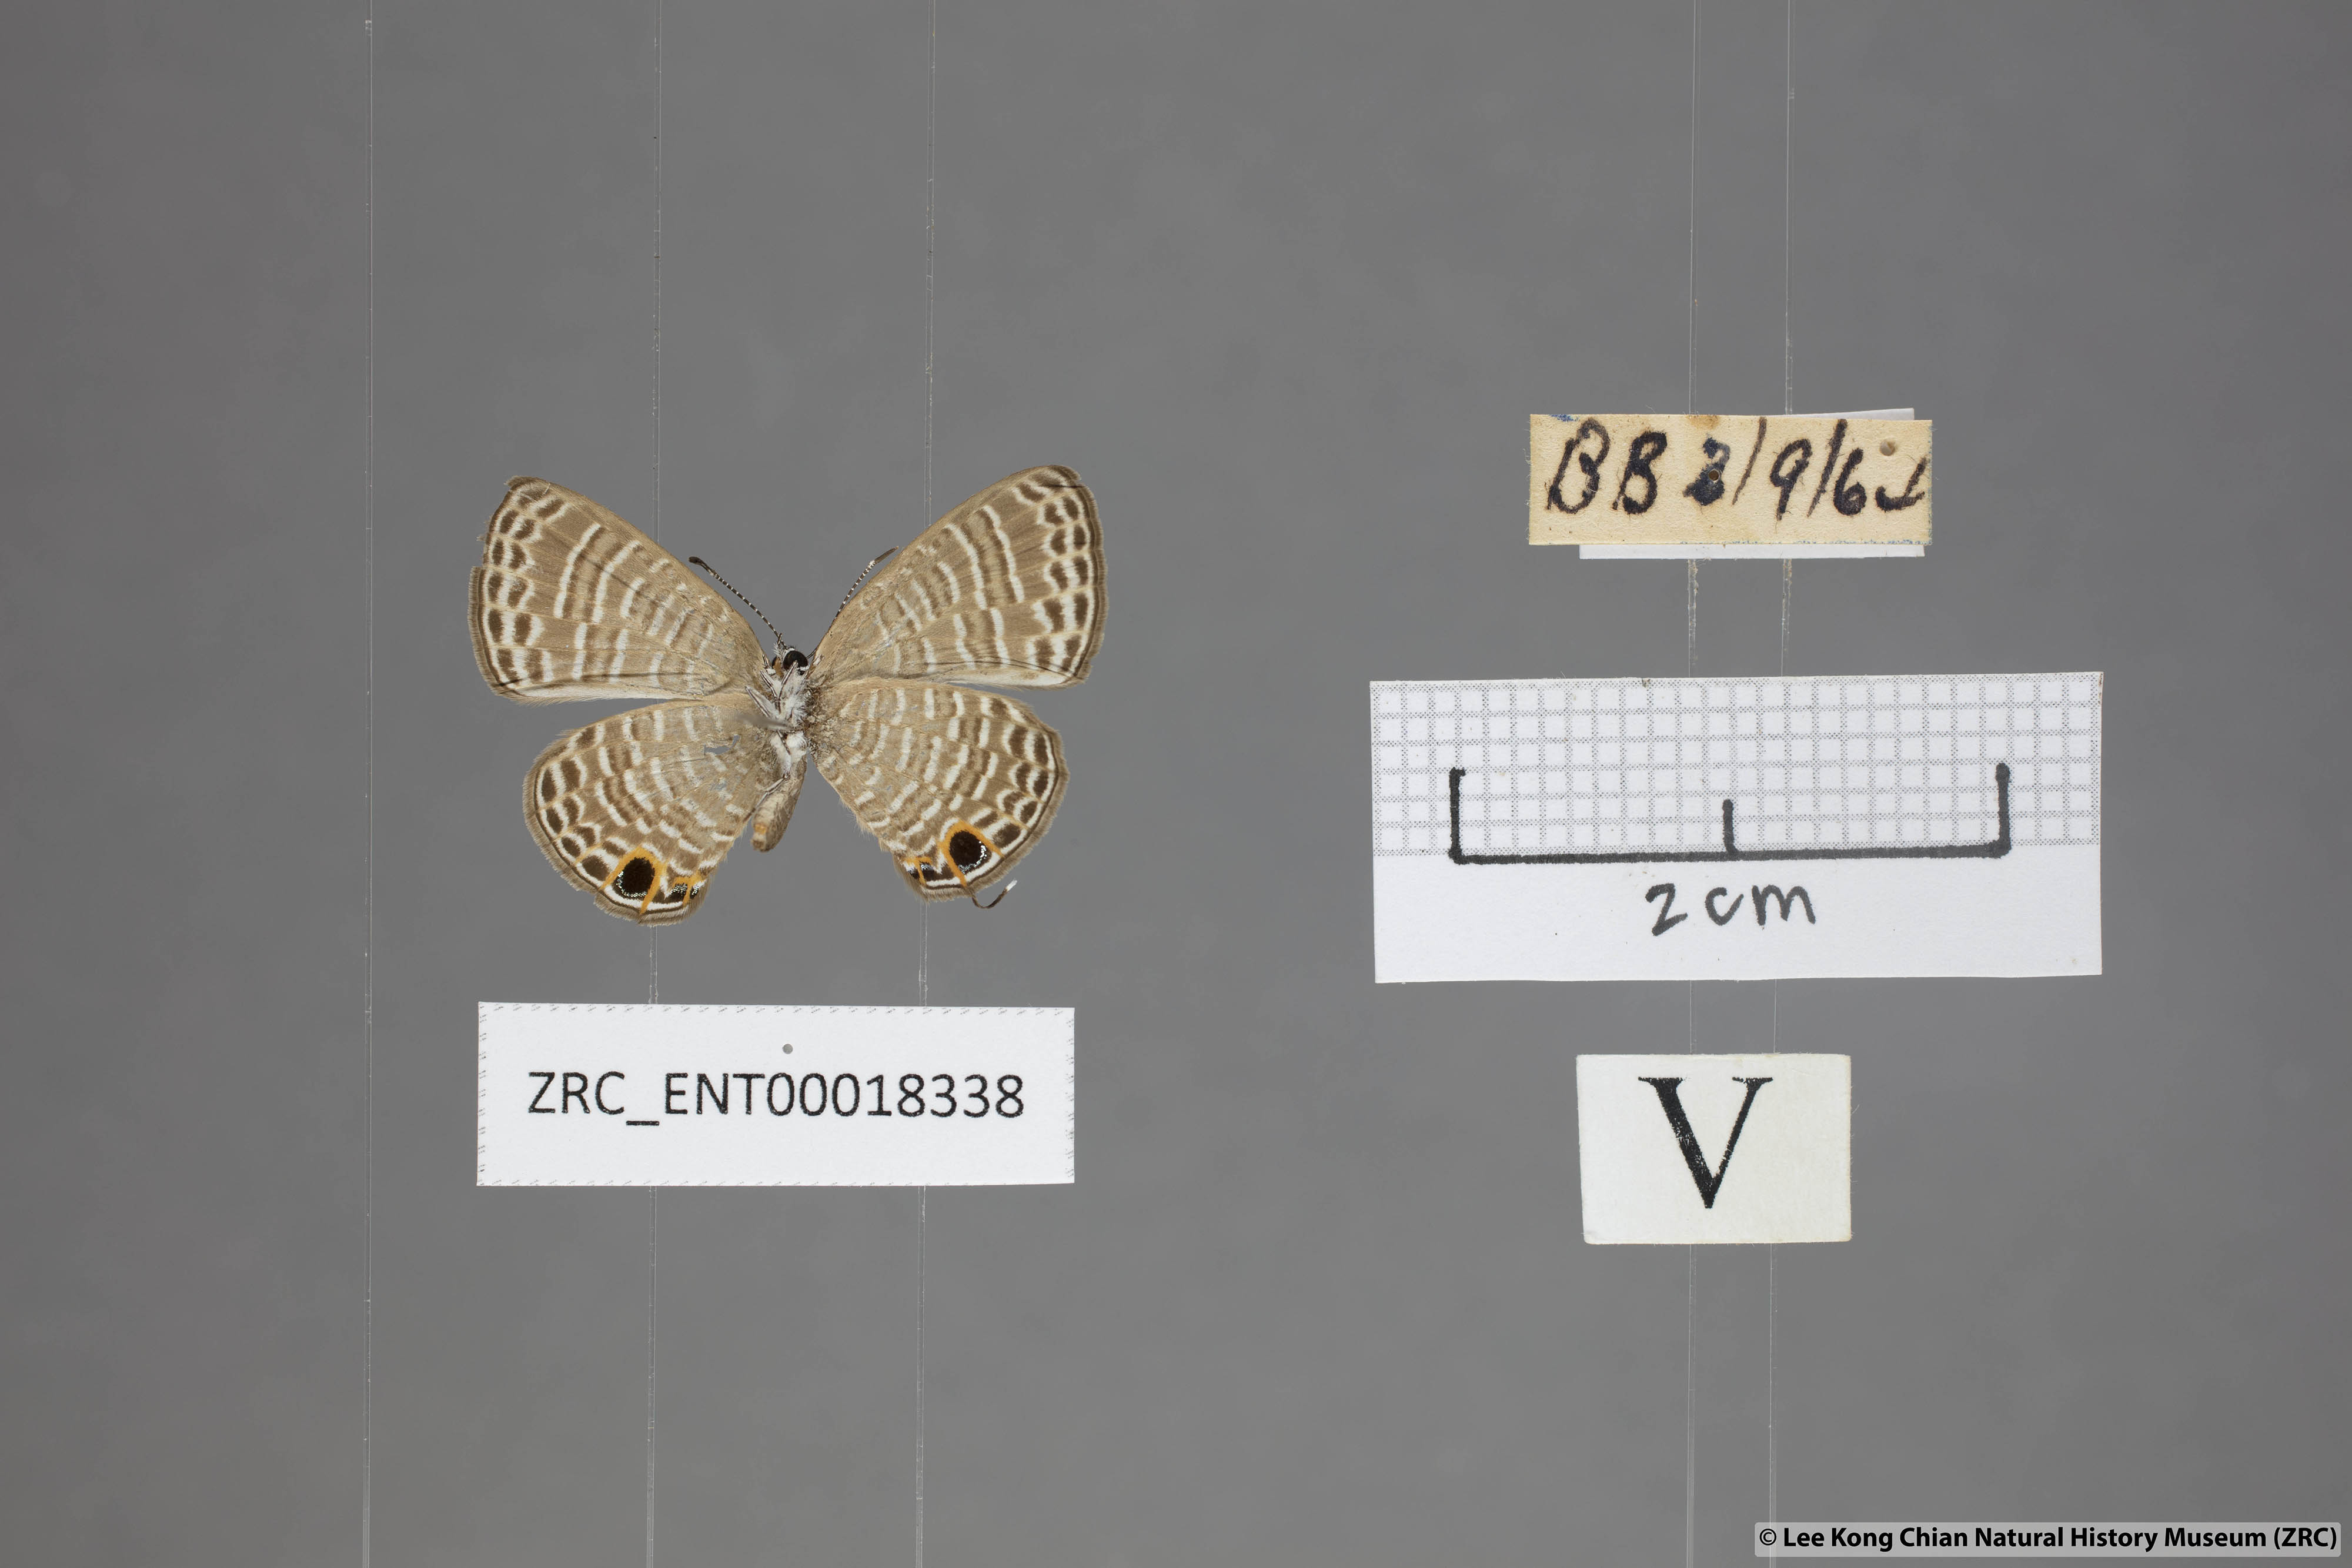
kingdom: Animalia
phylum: Arthropoda
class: Insecta
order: Lepidoptera
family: Lycaenidae
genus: Nacaduba
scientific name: Nacaduba calauria
